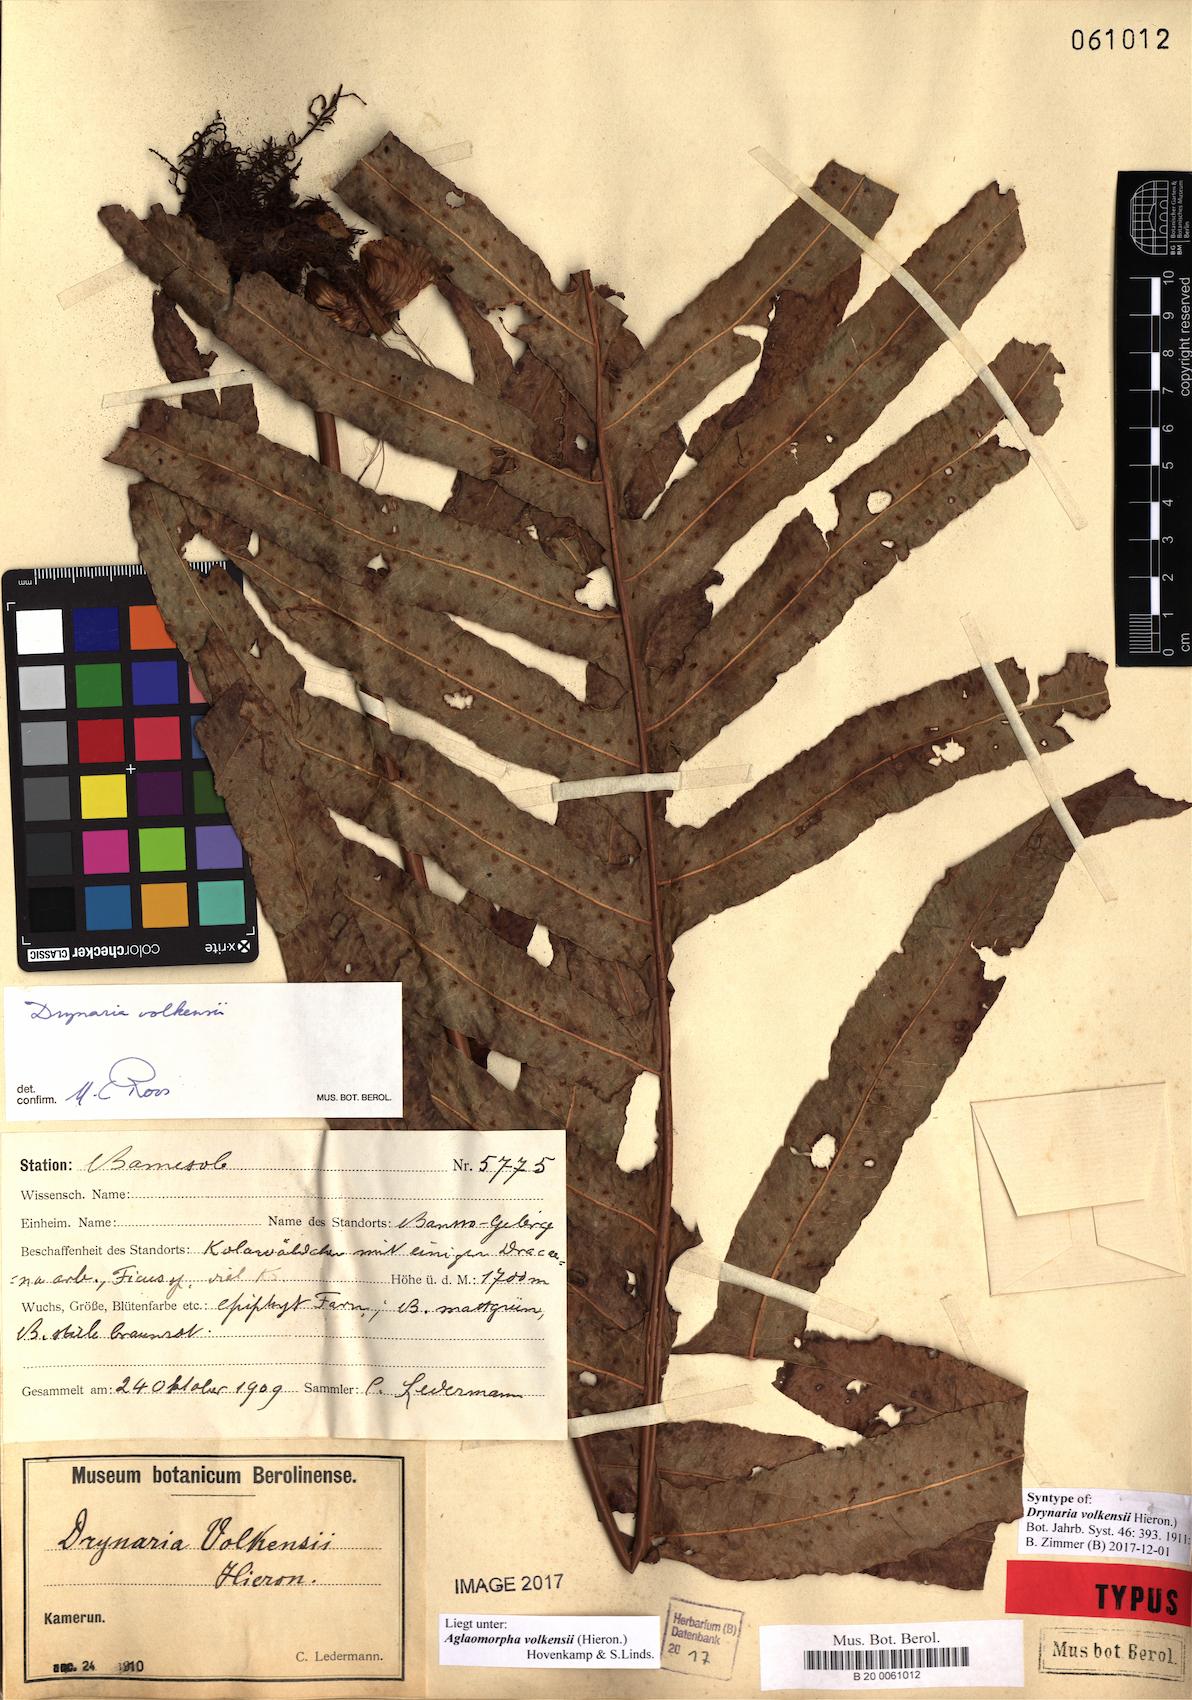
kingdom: Plantae
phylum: Tracheophyta
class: Polypodiopsida
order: Polypodiales
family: Polypodiaceae
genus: Drynaria
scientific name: Drynaria volkensii
